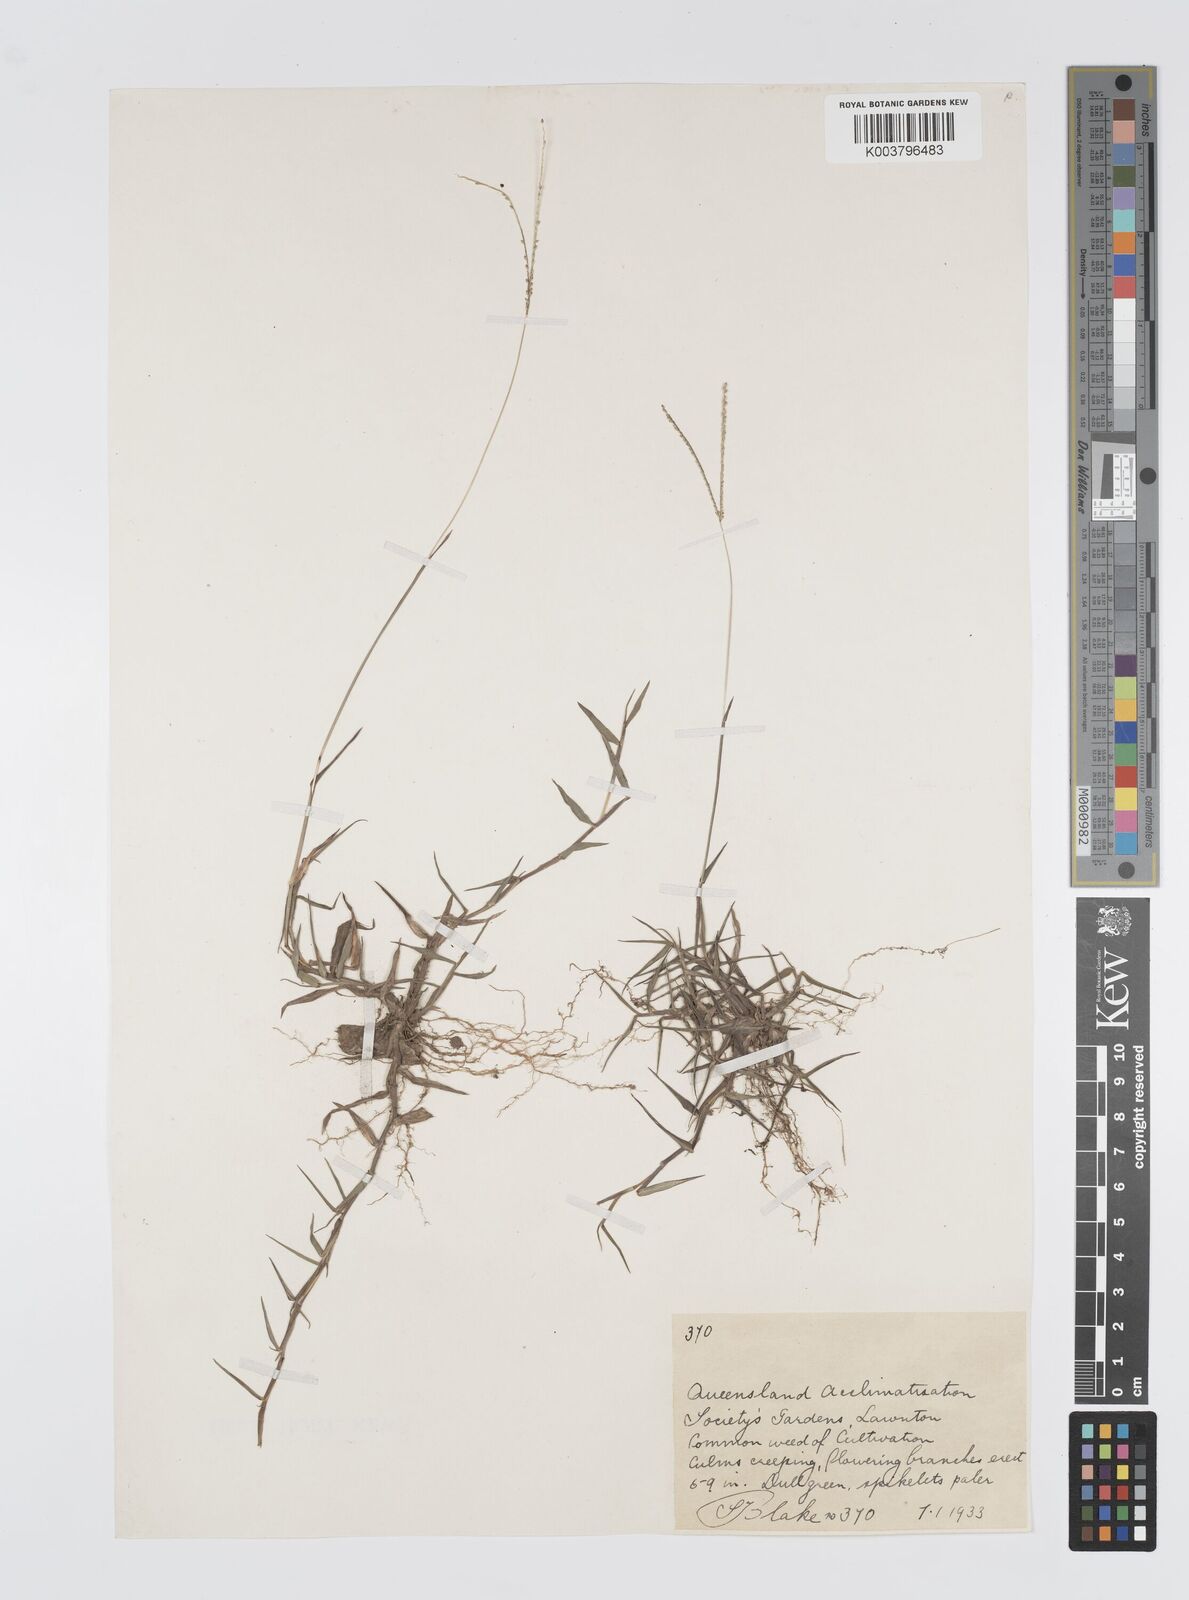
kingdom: Plantae
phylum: Tracheophyta
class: Liliopsida
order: Poales
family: Poaceae
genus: Digitaria
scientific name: Digitaria longiflora
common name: Wire crabgrass
